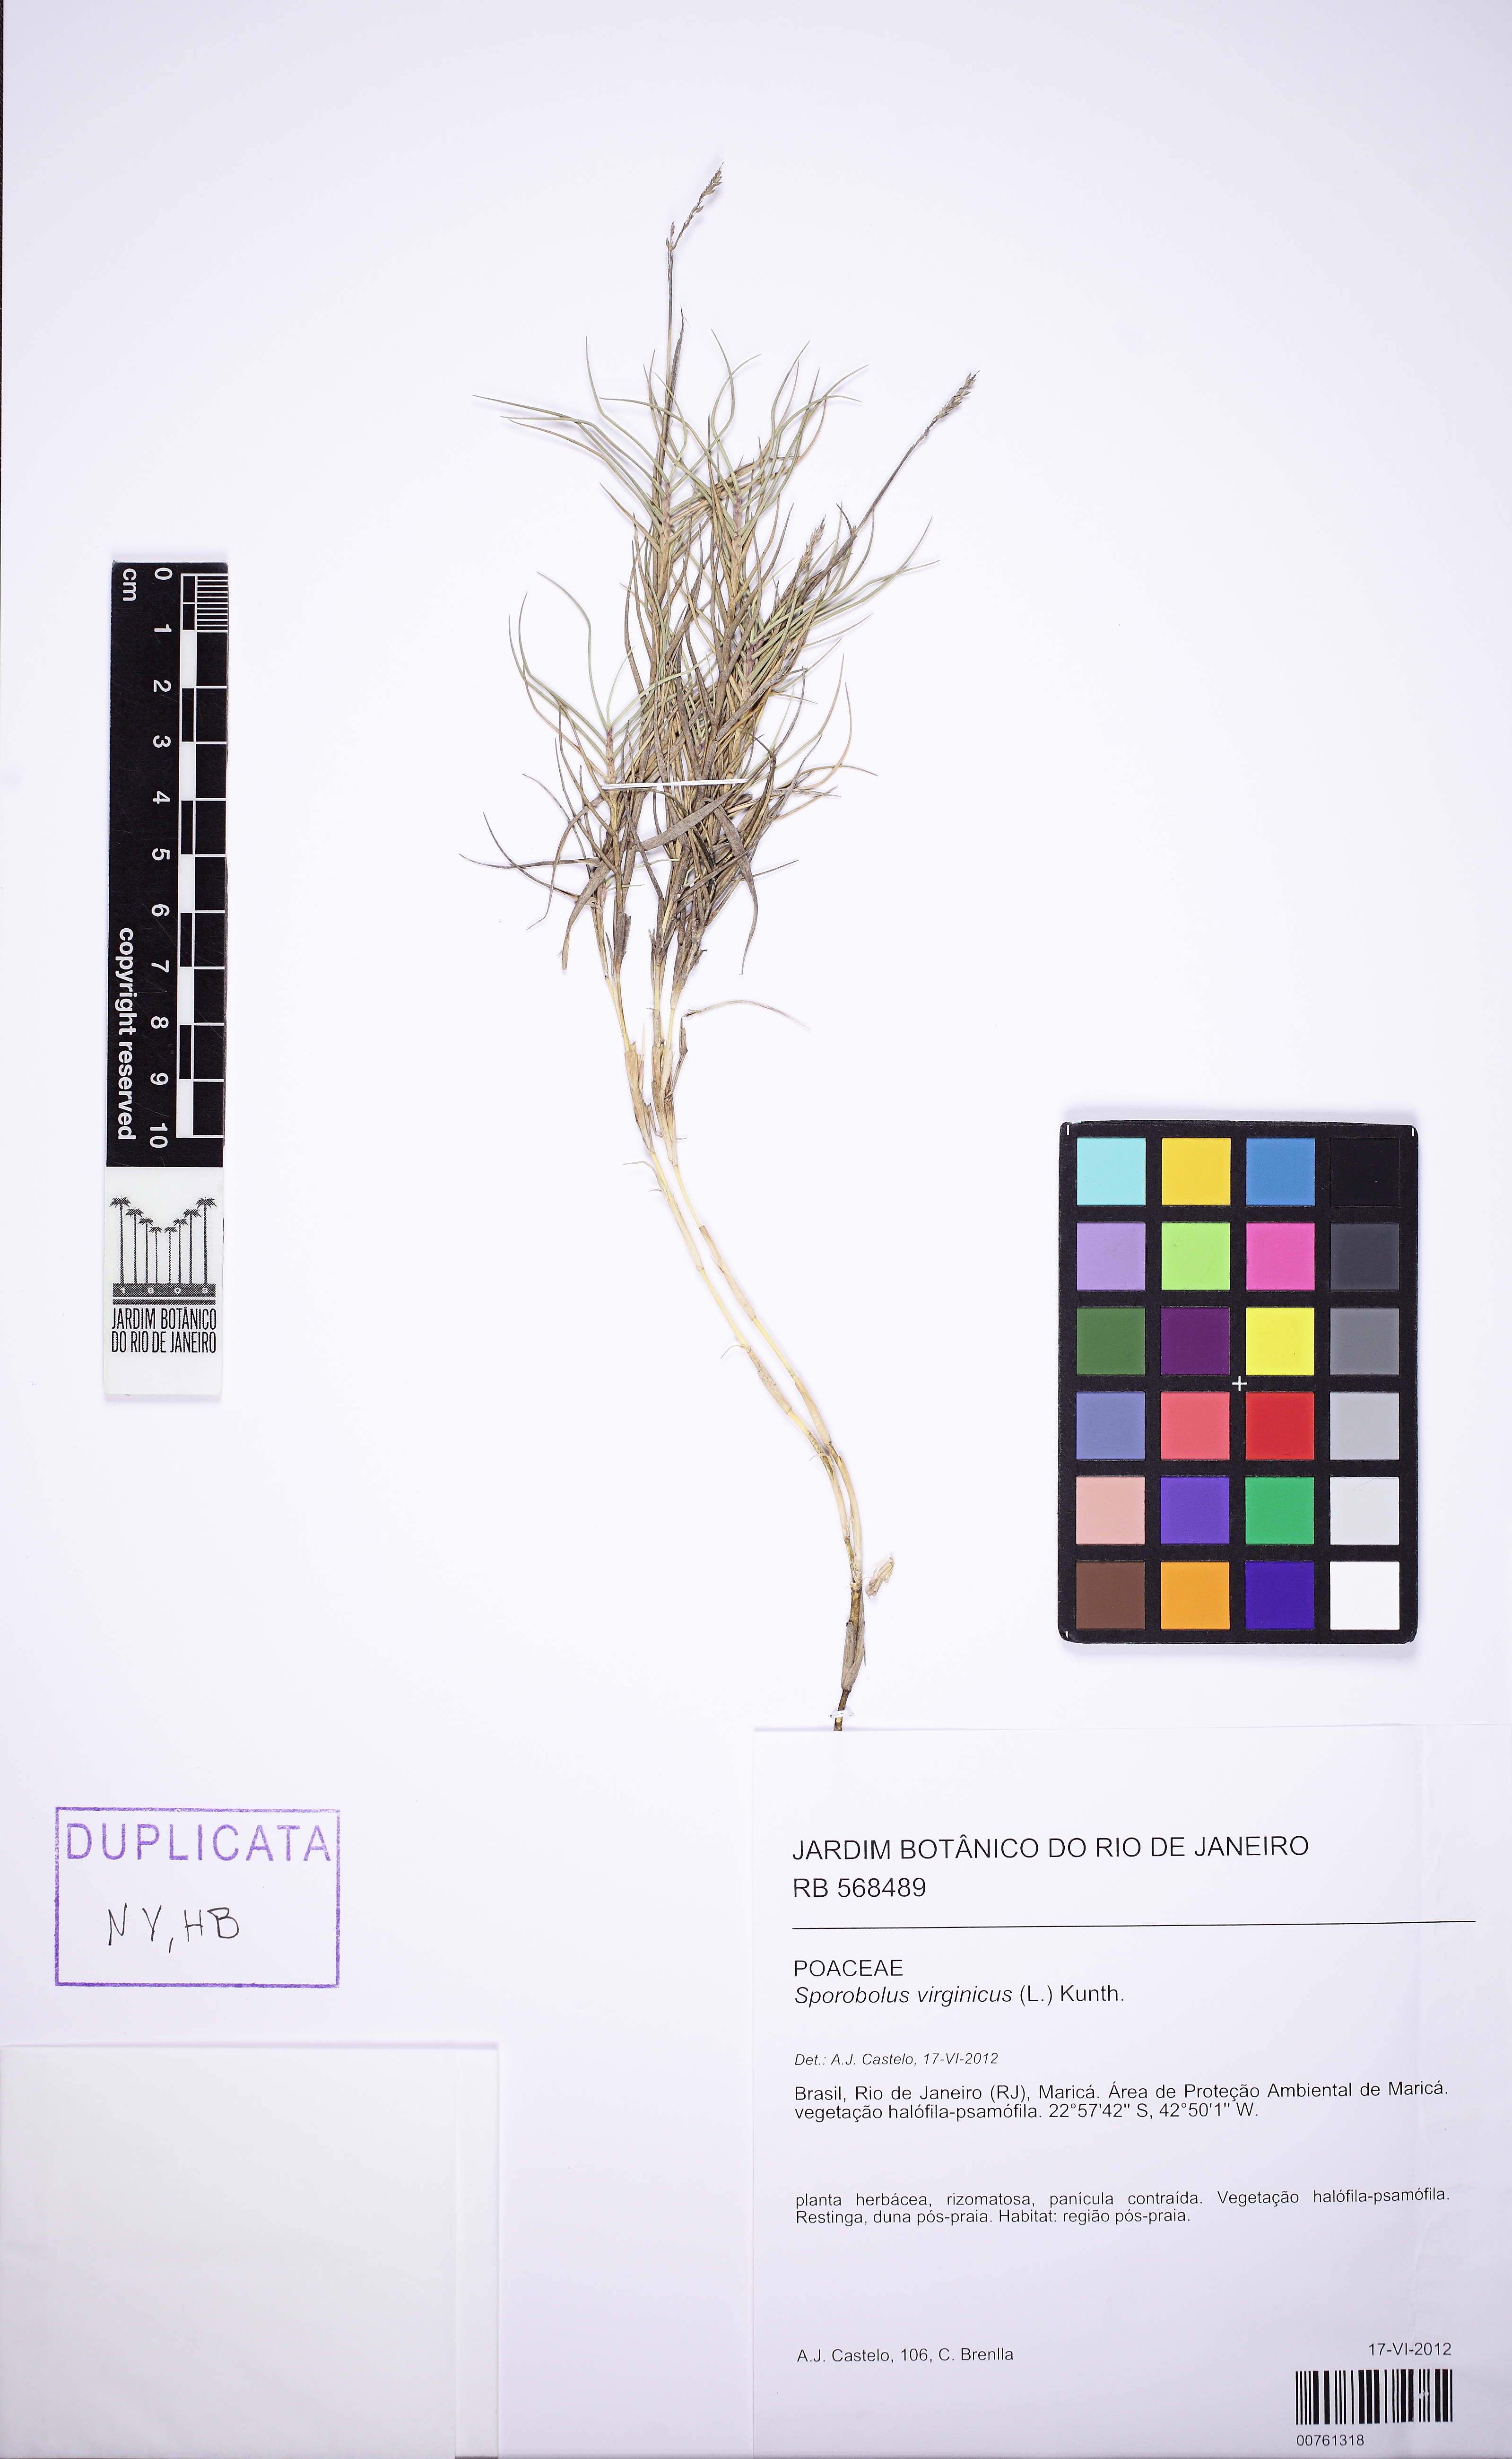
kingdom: Plantae
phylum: Tracheophyta
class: Liliopsida
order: Poales
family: Poaceae
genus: Sporobolus
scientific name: Sporobolus virginicus
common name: Beach dropseed
